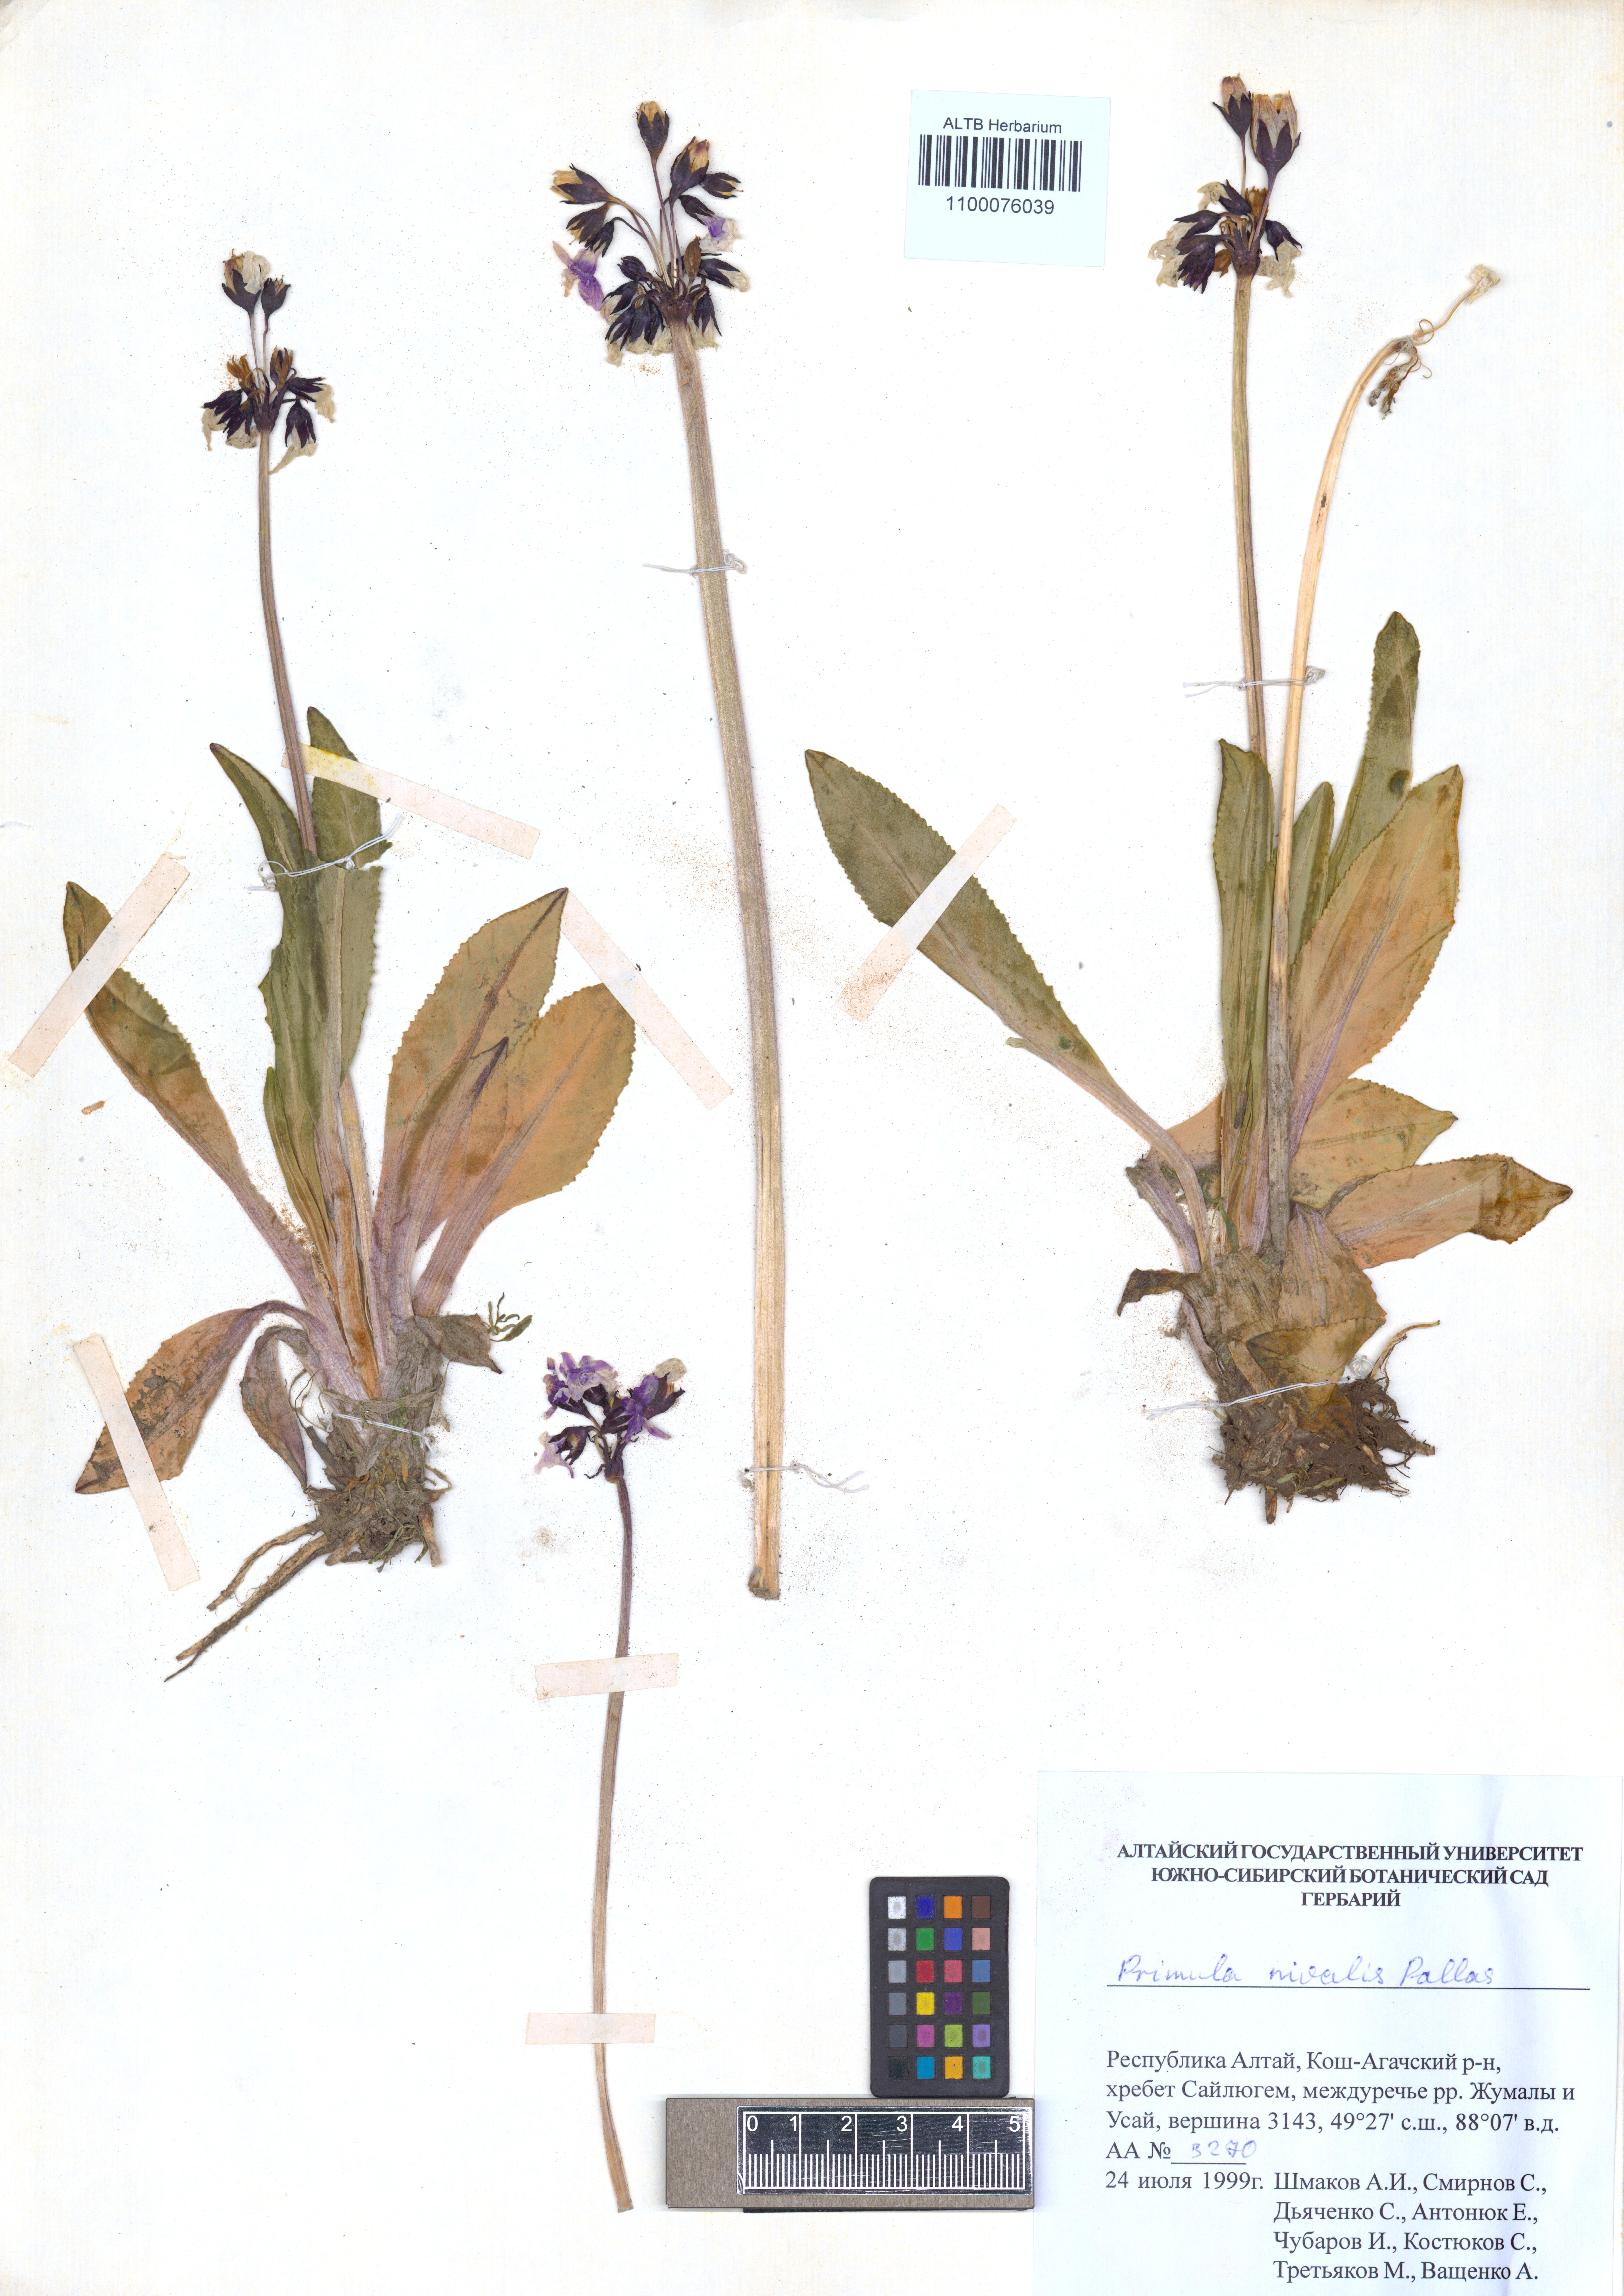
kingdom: Plantae
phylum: Tracheophyta
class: Magnoliopsida
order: Ericales
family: Primulaceae
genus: Primula
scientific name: Primula nivalis
